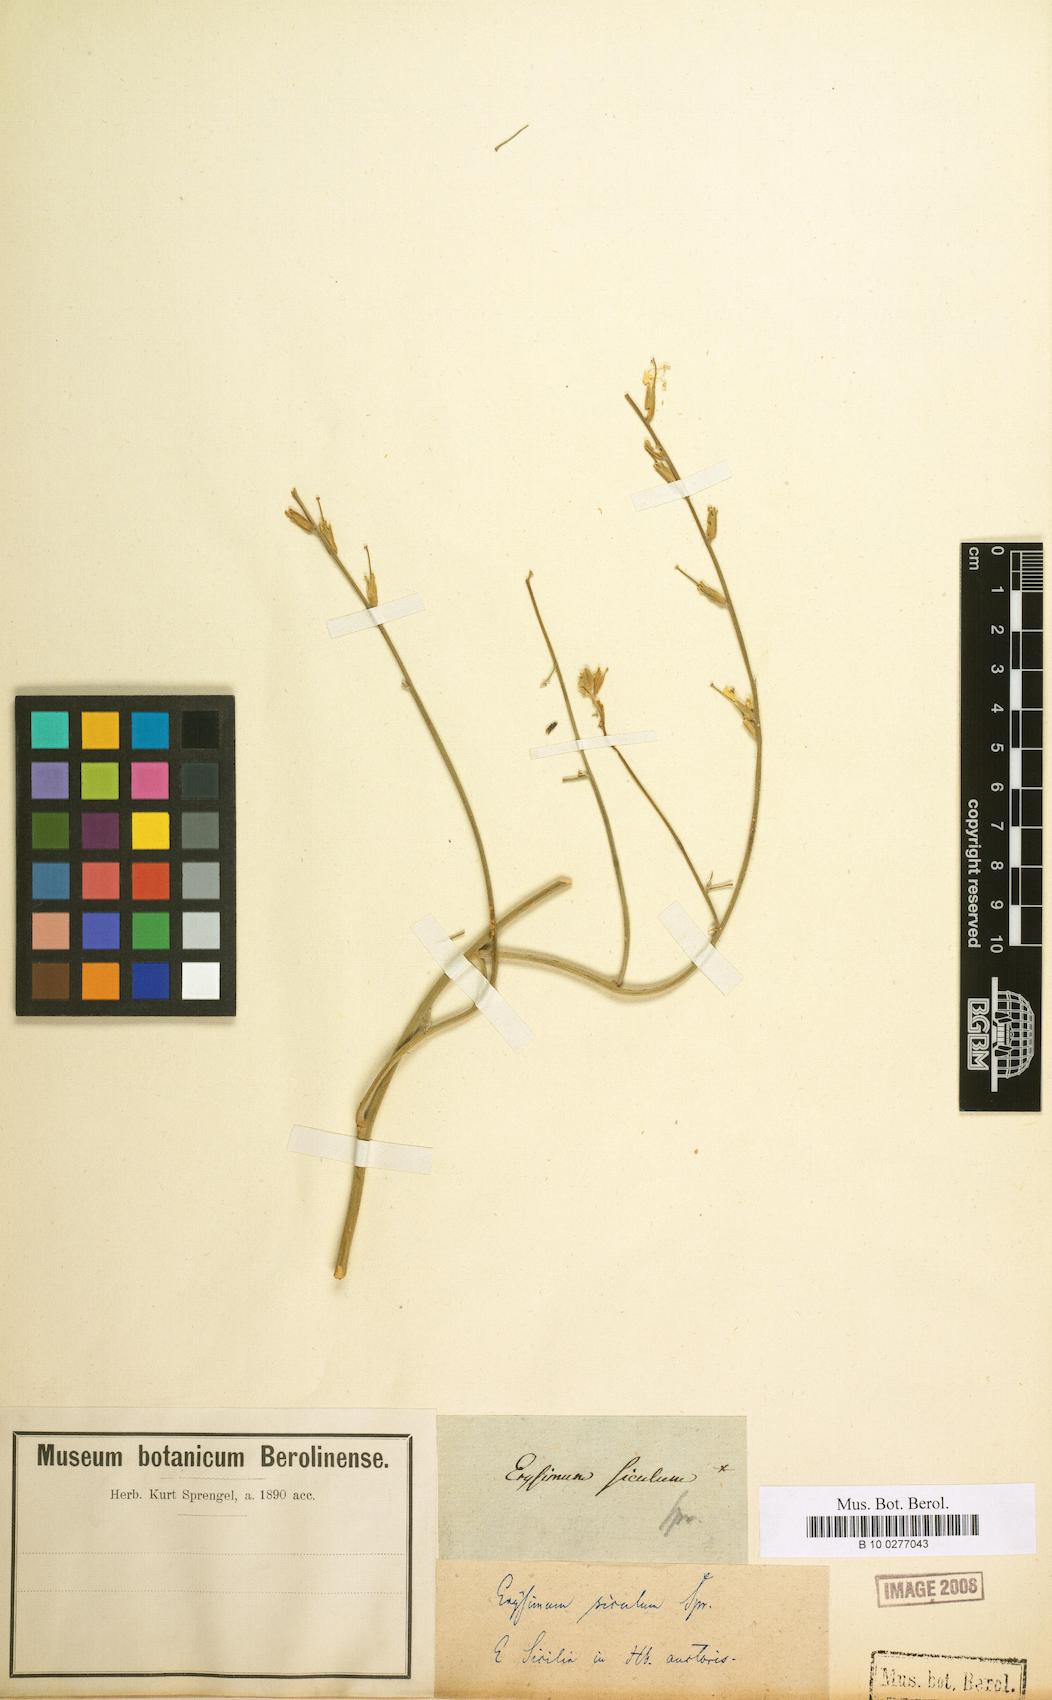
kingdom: Plantae
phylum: Tracheophyta
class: Magnoliopsida
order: Brassicales
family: Brassicaceae
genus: Erysimum
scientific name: Erysimum montanum
